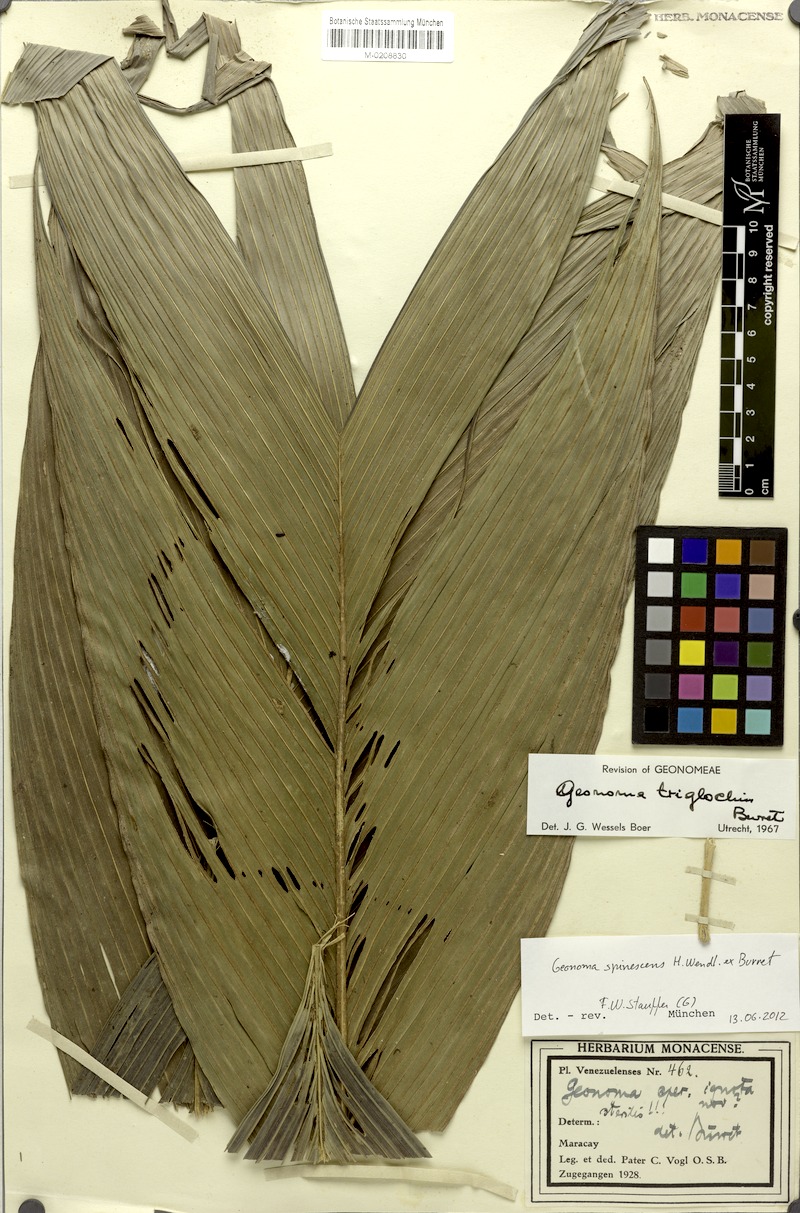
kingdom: Plantae
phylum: Tracheophyta
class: Liliopsida
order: Arecales
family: Arecaceae
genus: Geonoma
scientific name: Geonoma spinescens
